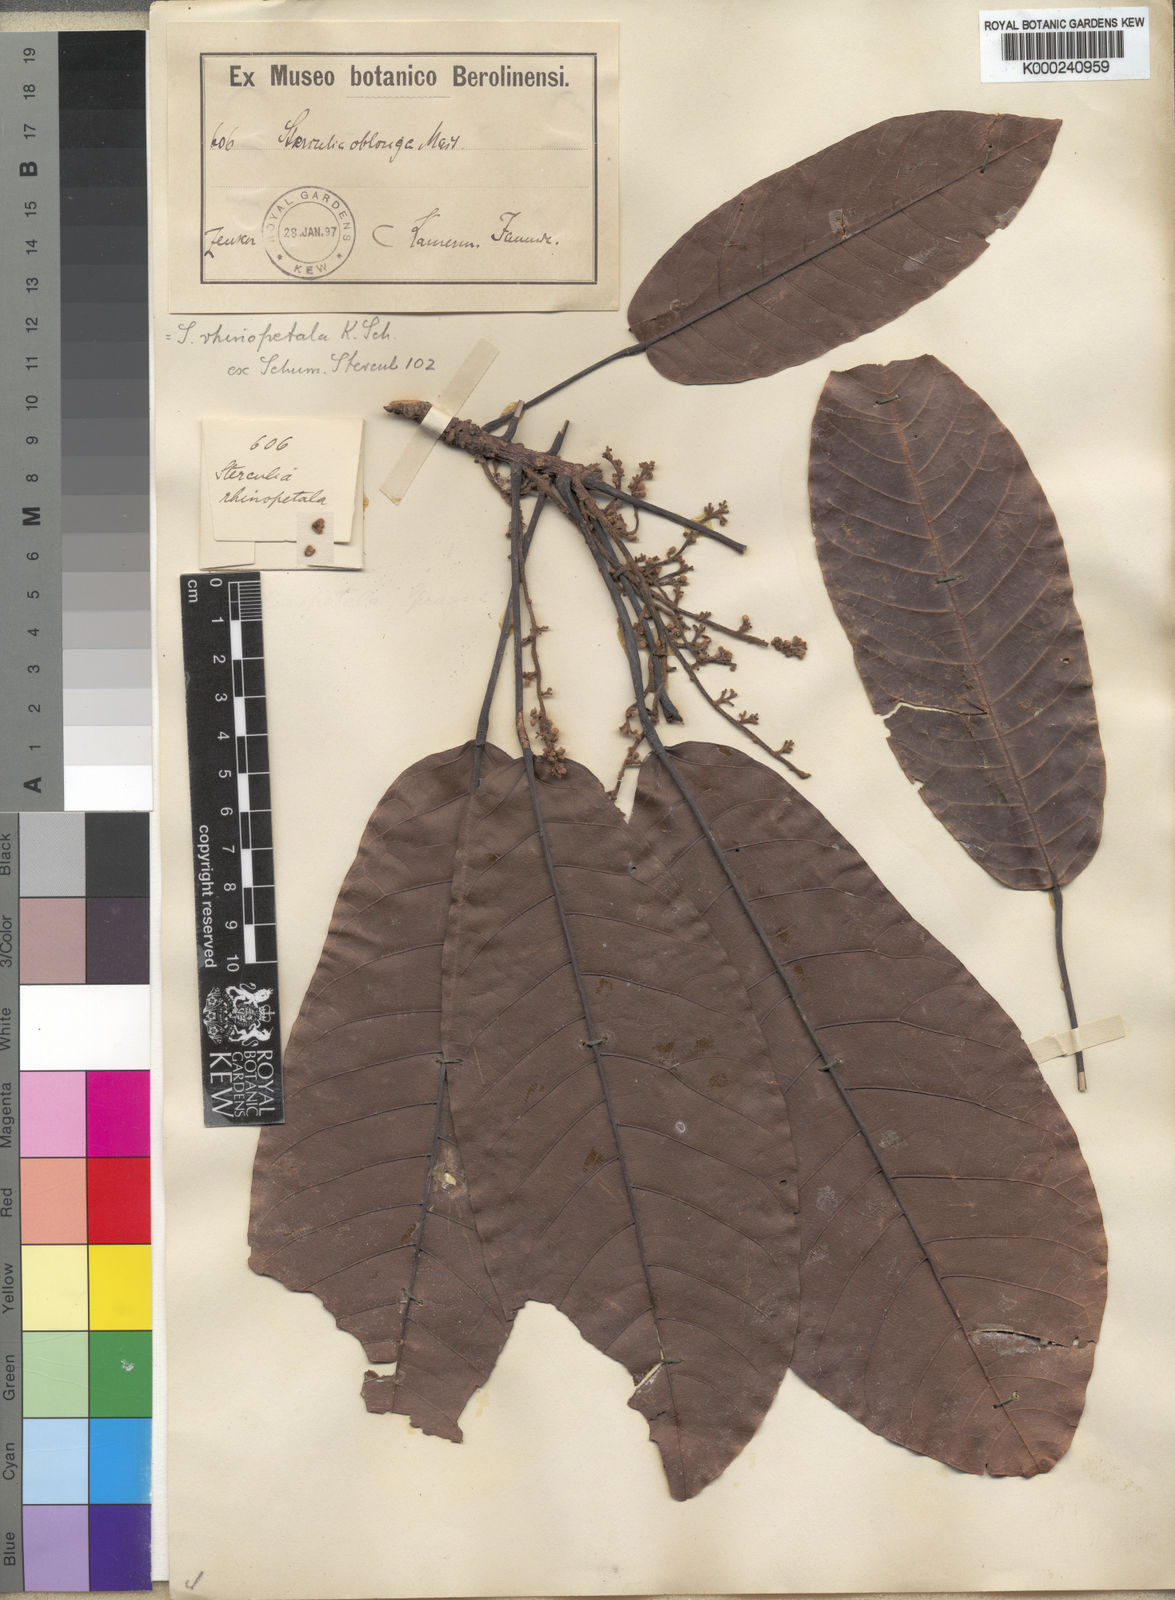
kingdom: Plantae
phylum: Tracheophyta
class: Magnoliopsida
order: Malvales
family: Malvaceae
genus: Sterculia
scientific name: Sterculia rhinopetala
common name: Brown sterculia
